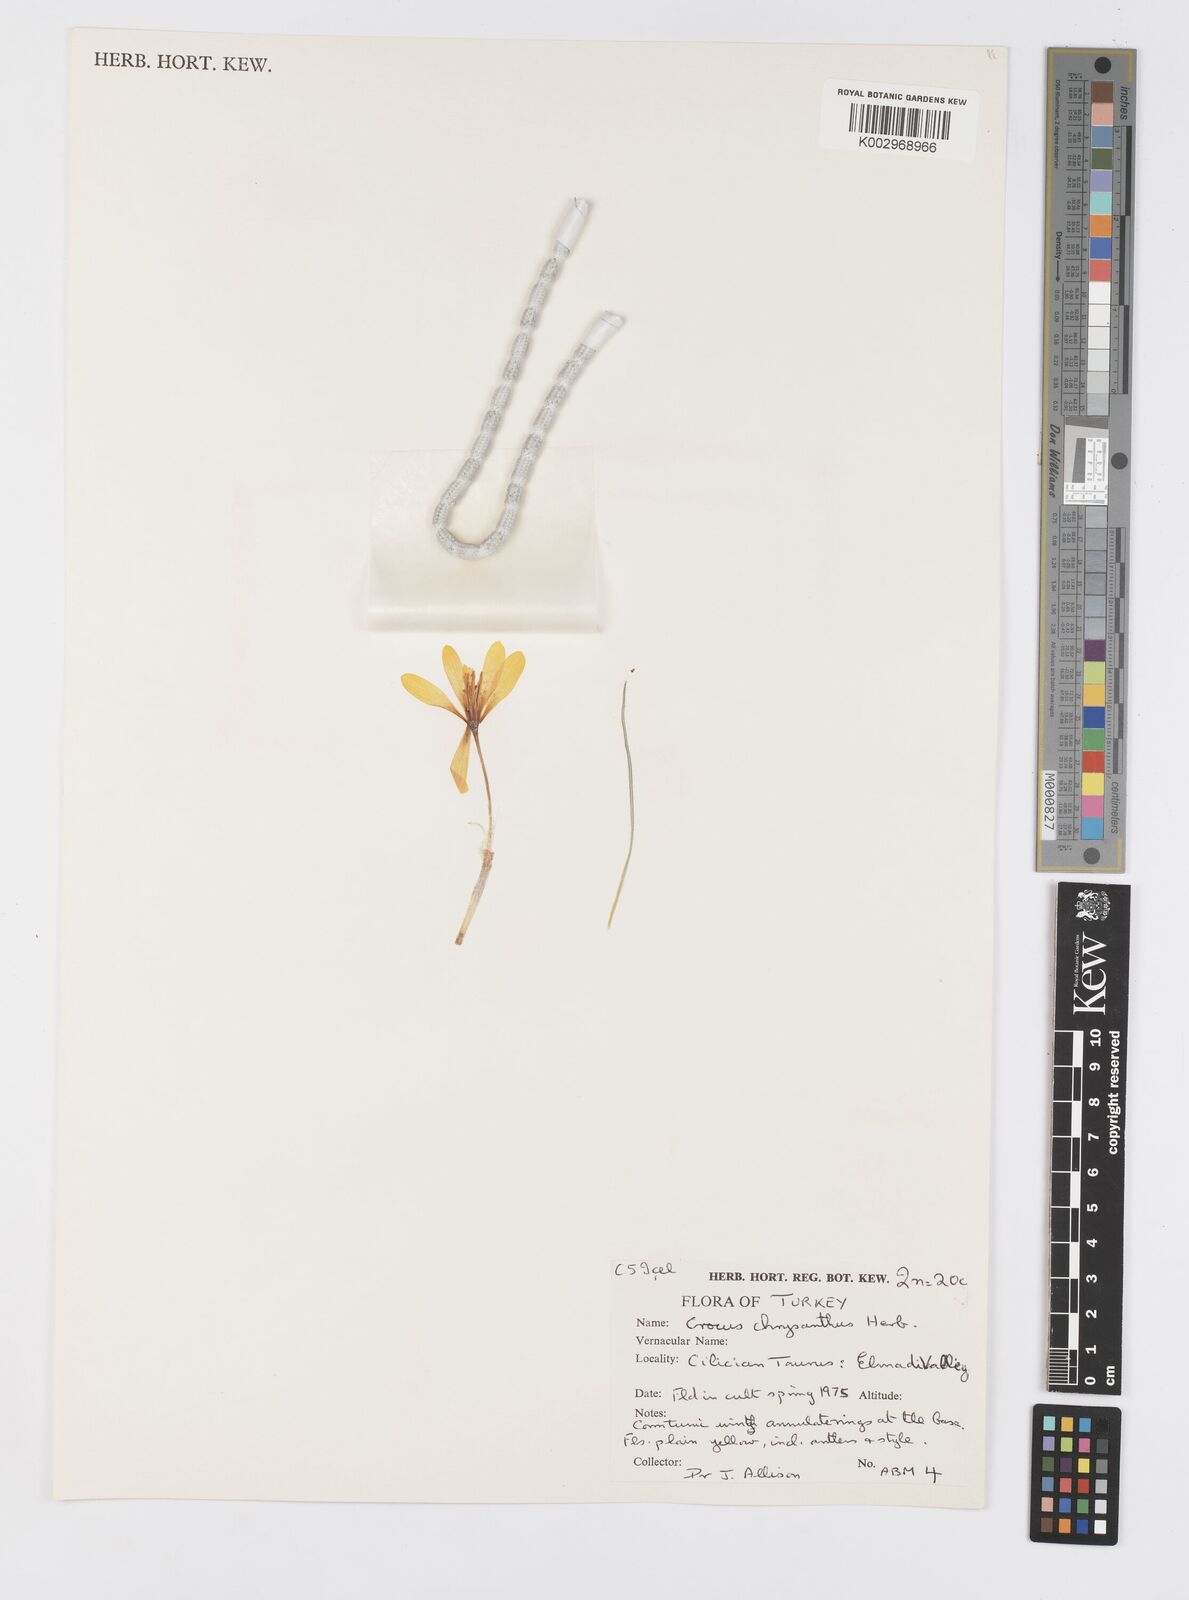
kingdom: Plantae
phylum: Tracheophyta
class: Liliopsida
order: Asparagales
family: Iridaceae
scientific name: Iridaceae
